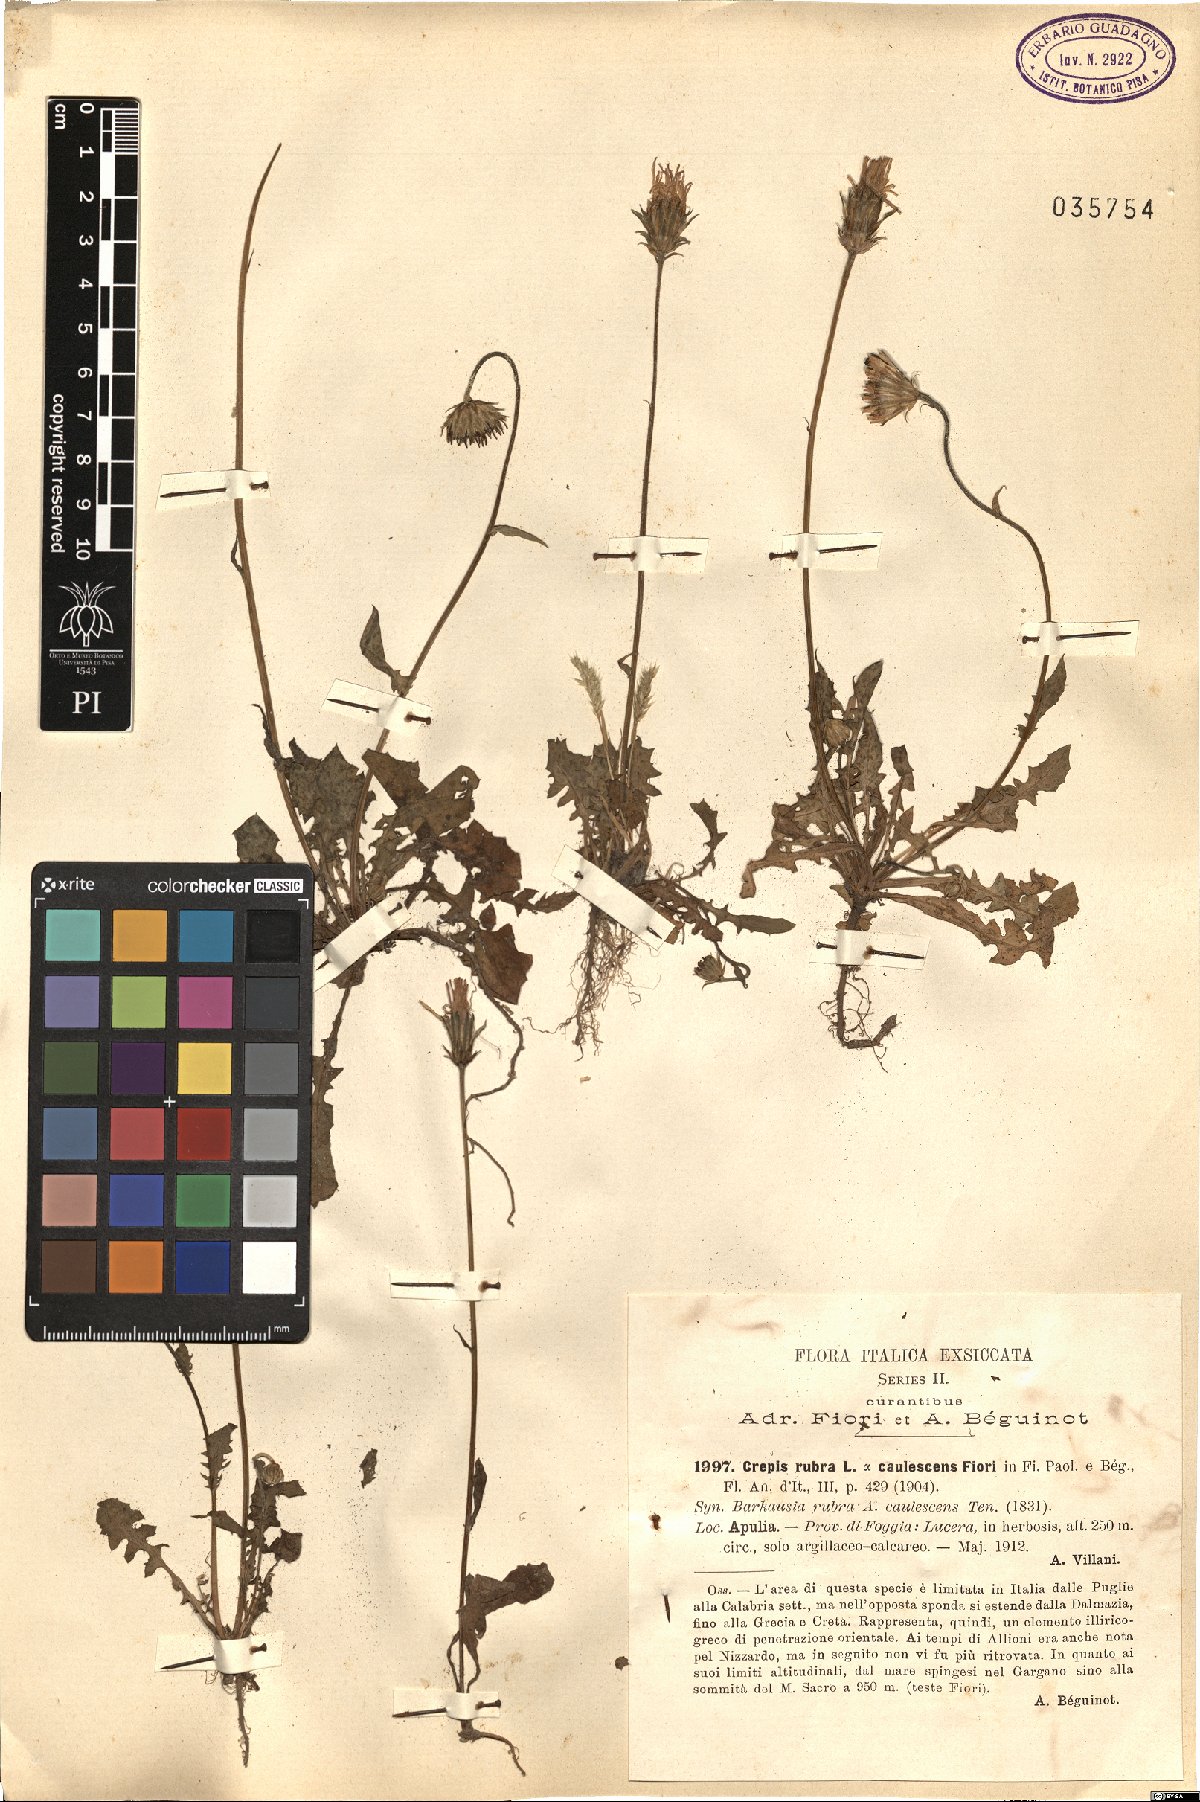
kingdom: Plantae
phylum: Tracheophyta
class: Magnoliopsida
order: Asterales
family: Asteraceae
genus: Crepis
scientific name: Crepis rubra
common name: Pink hawk's-beard
